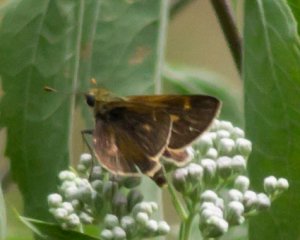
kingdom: Animalia
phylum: Arthropoda
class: Insecta
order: Lepidoptera
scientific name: Lepidoptera
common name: Butterflies
